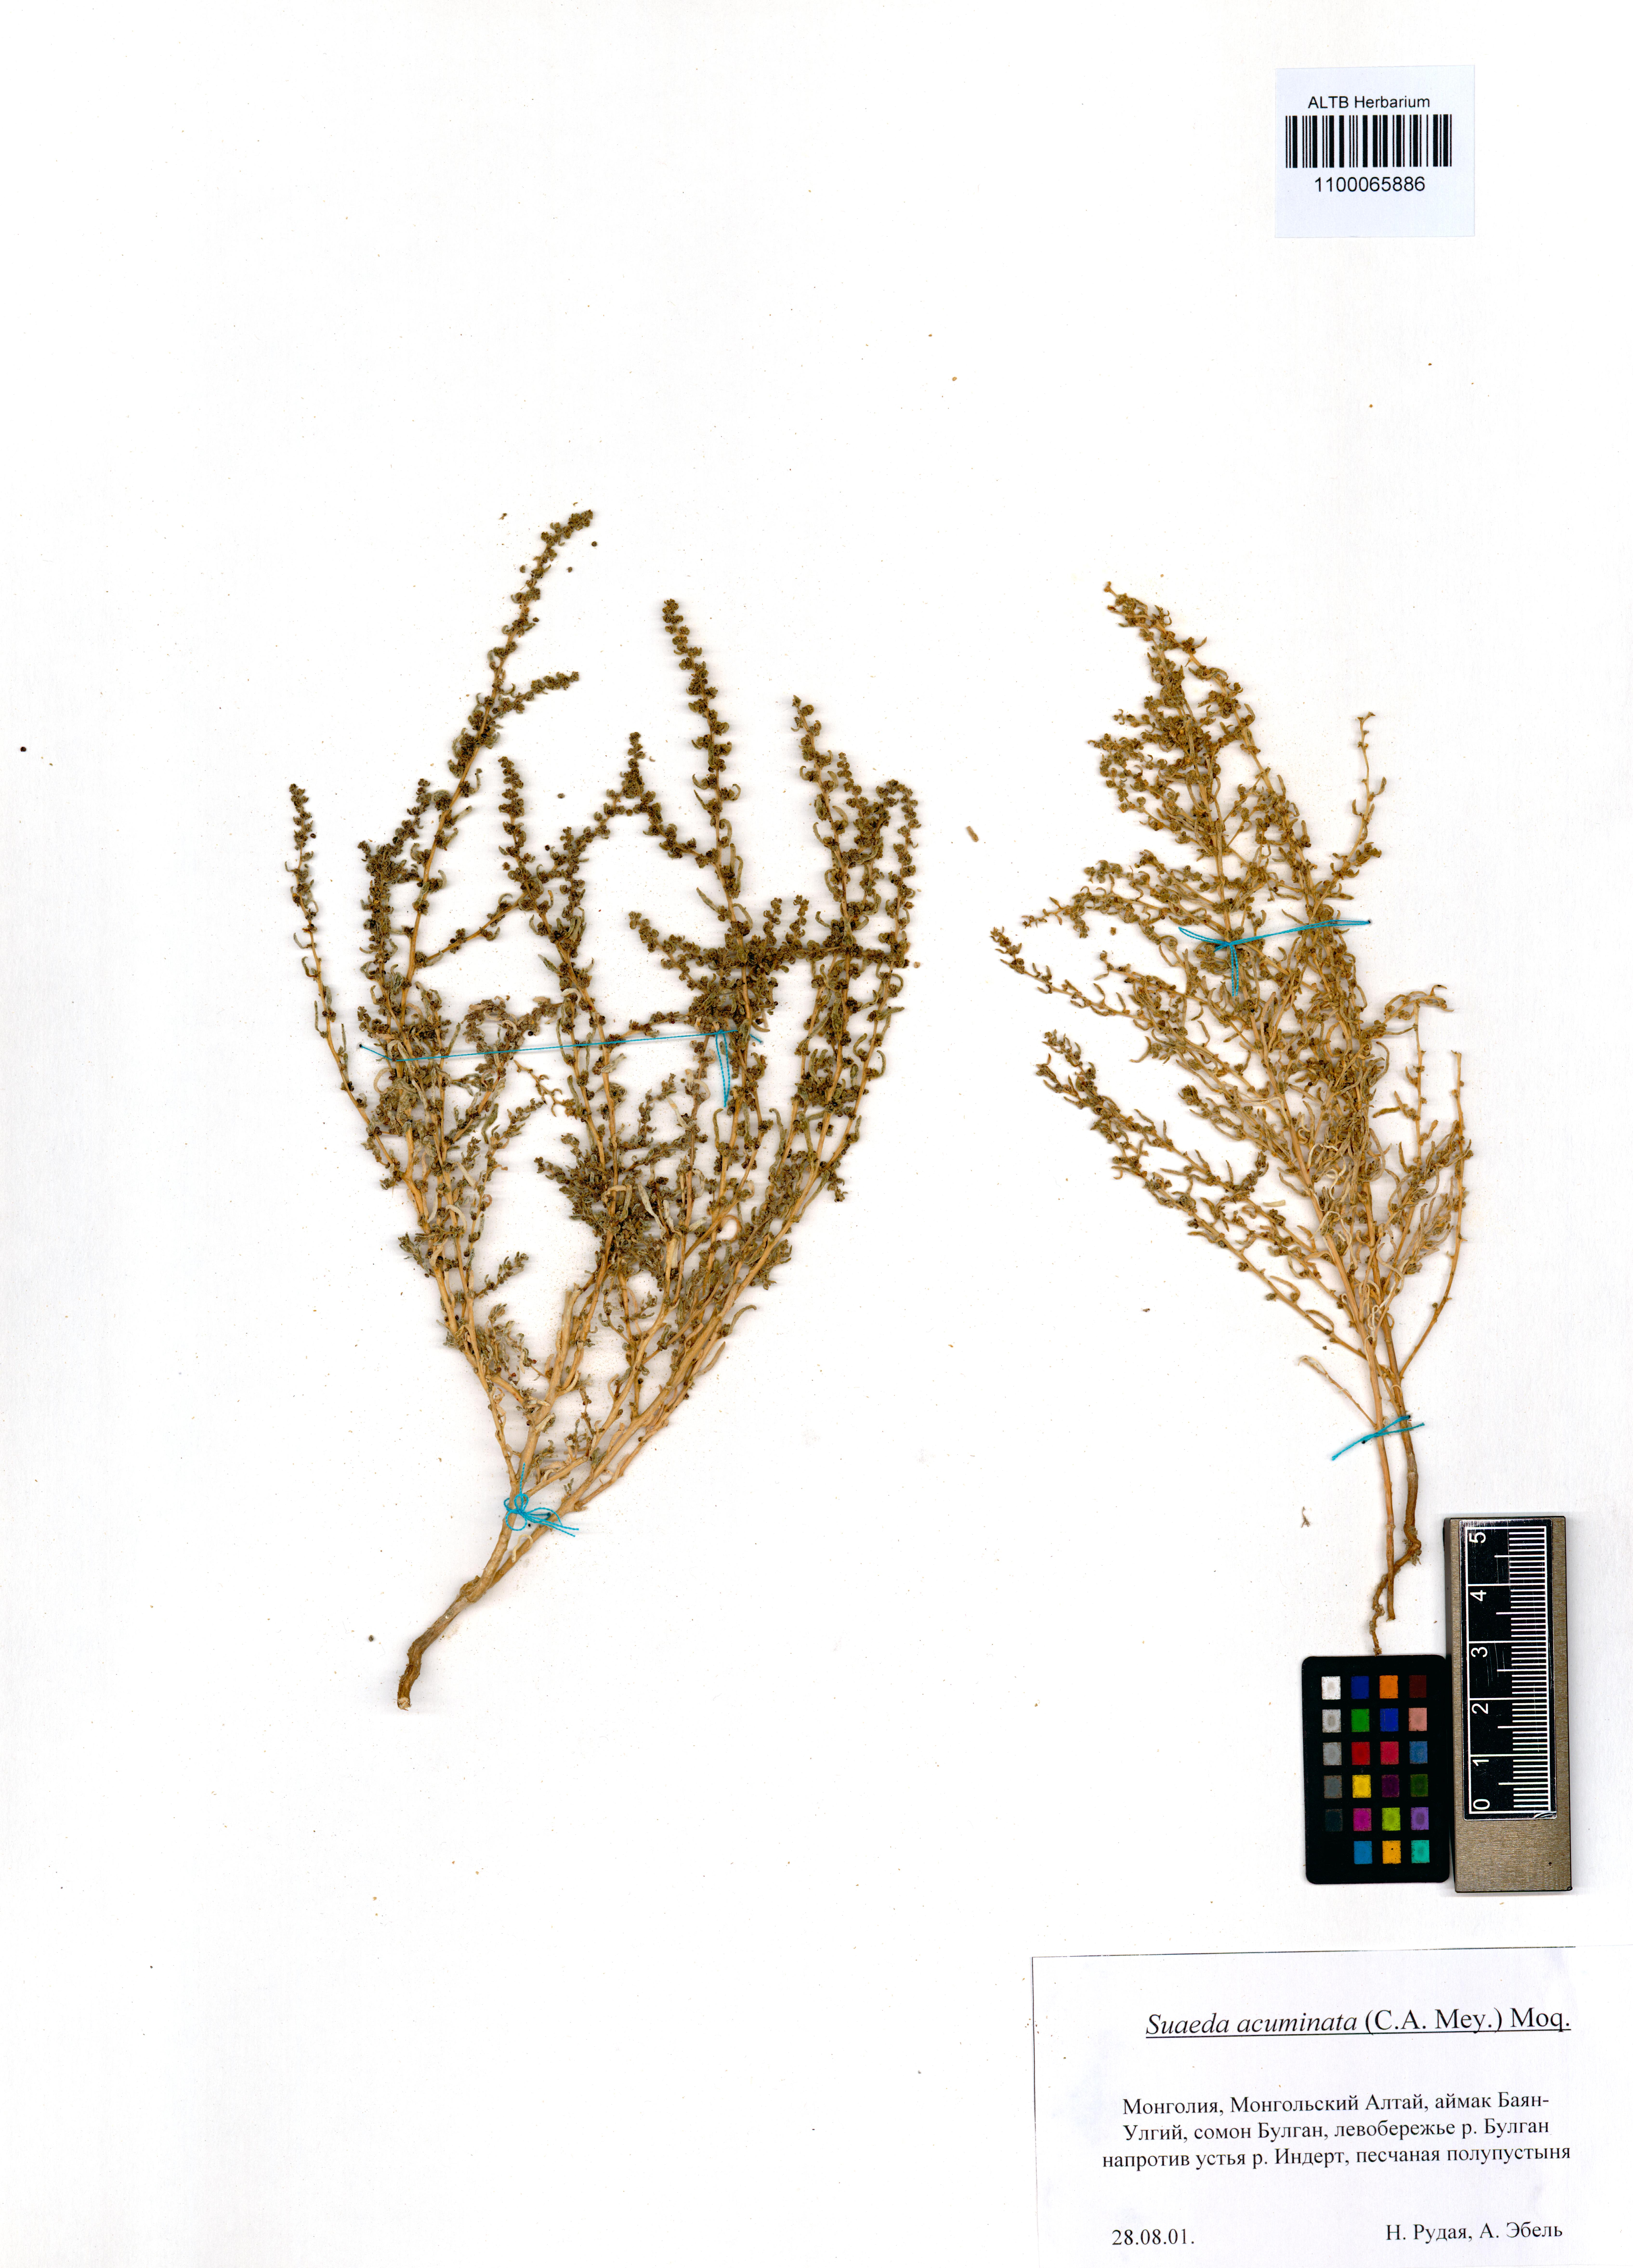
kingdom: Plantae
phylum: Tracheophyta
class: Magnoliopsida
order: Caryophyllales
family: Amaranthaceae
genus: Suaeda
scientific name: Suaeda acuminata
